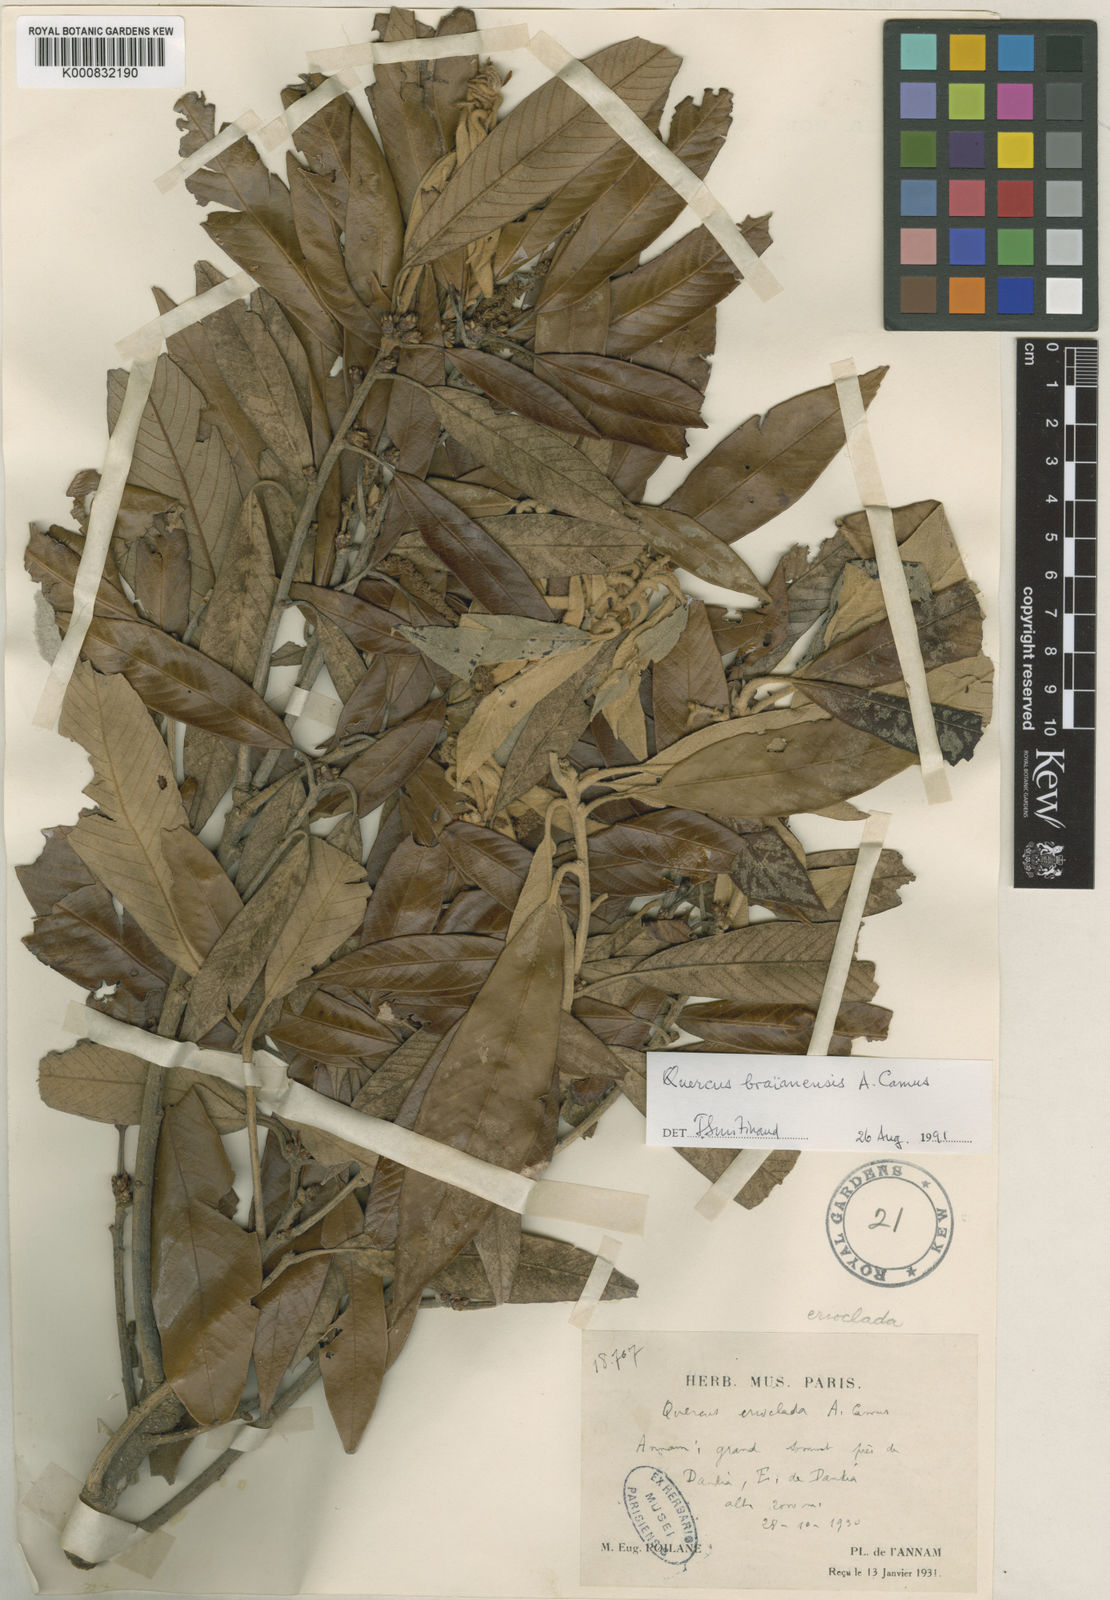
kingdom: Plantae
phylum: Tracheophyta
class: Magnoliopsida
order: Fagales
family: Fagaceae
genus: Quercus
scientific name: Quercus braianensis
